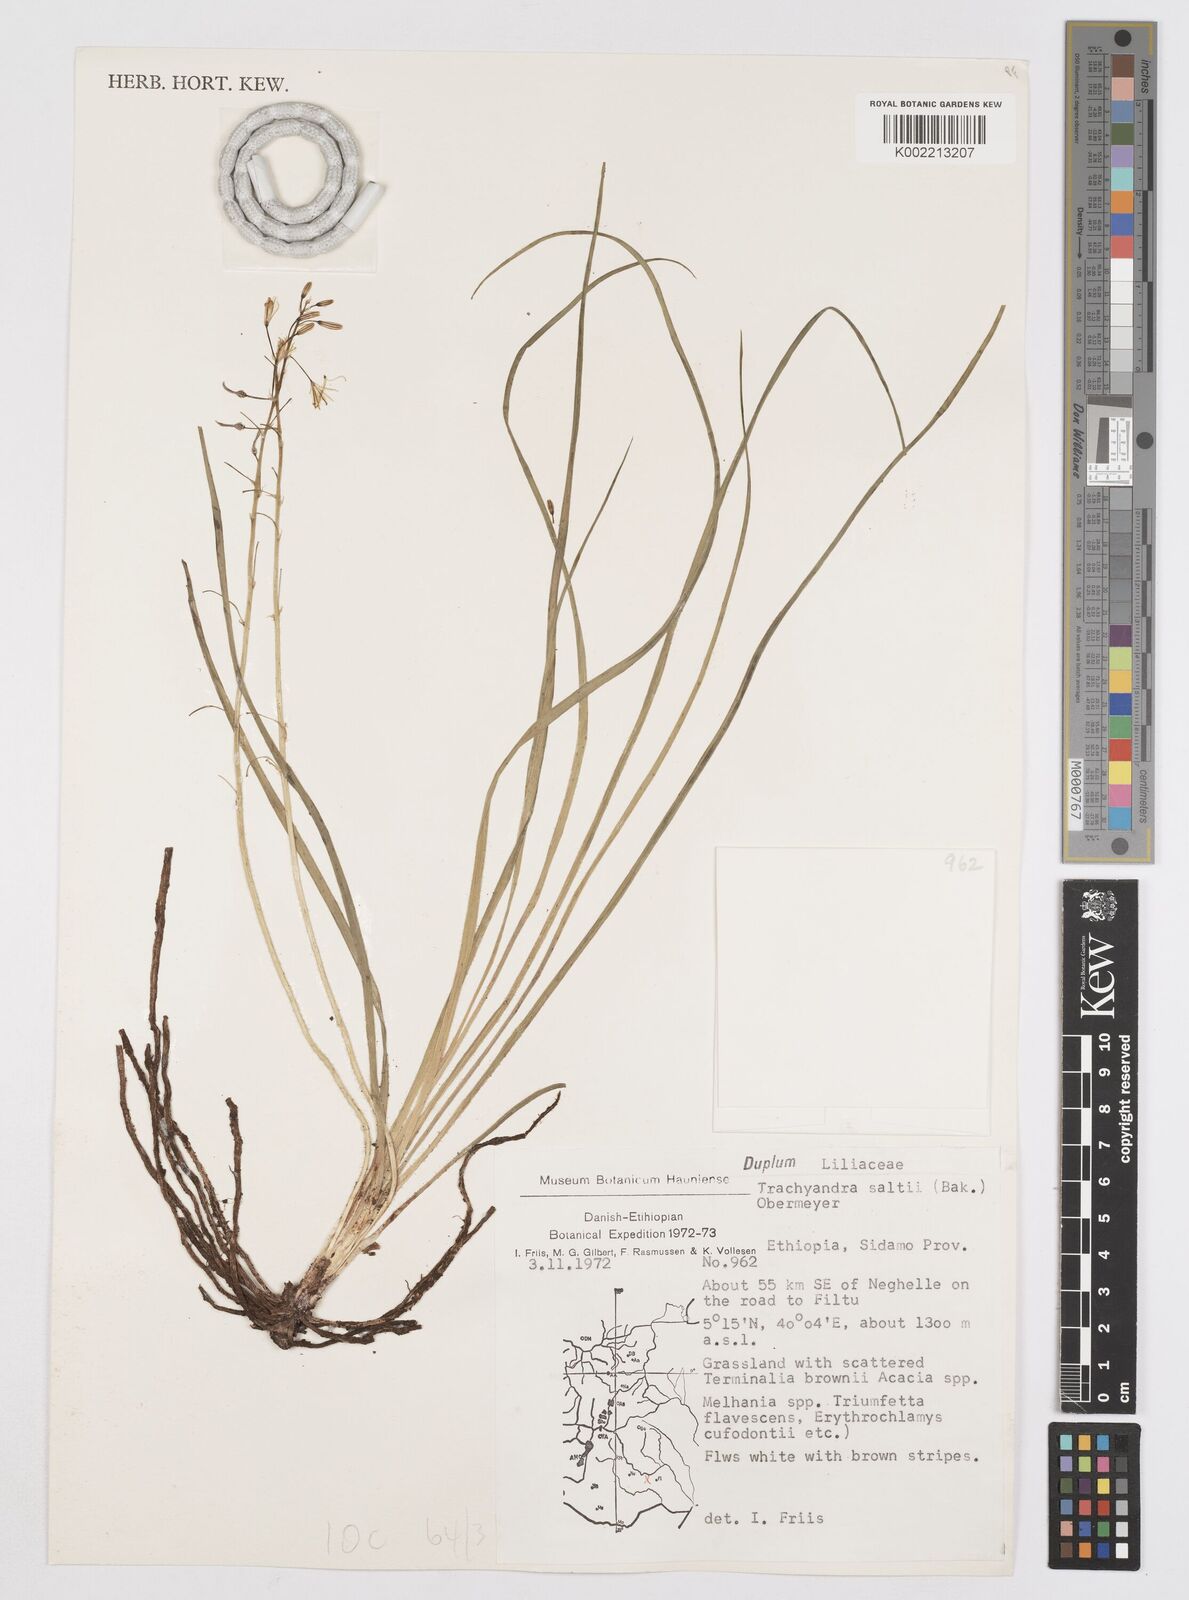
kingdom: Plantae
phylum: Tracheophyta
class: Liliopsida
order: Asparagales
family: Asphodelaceae
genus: Trachyandra
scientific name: Trachyandra saltii
